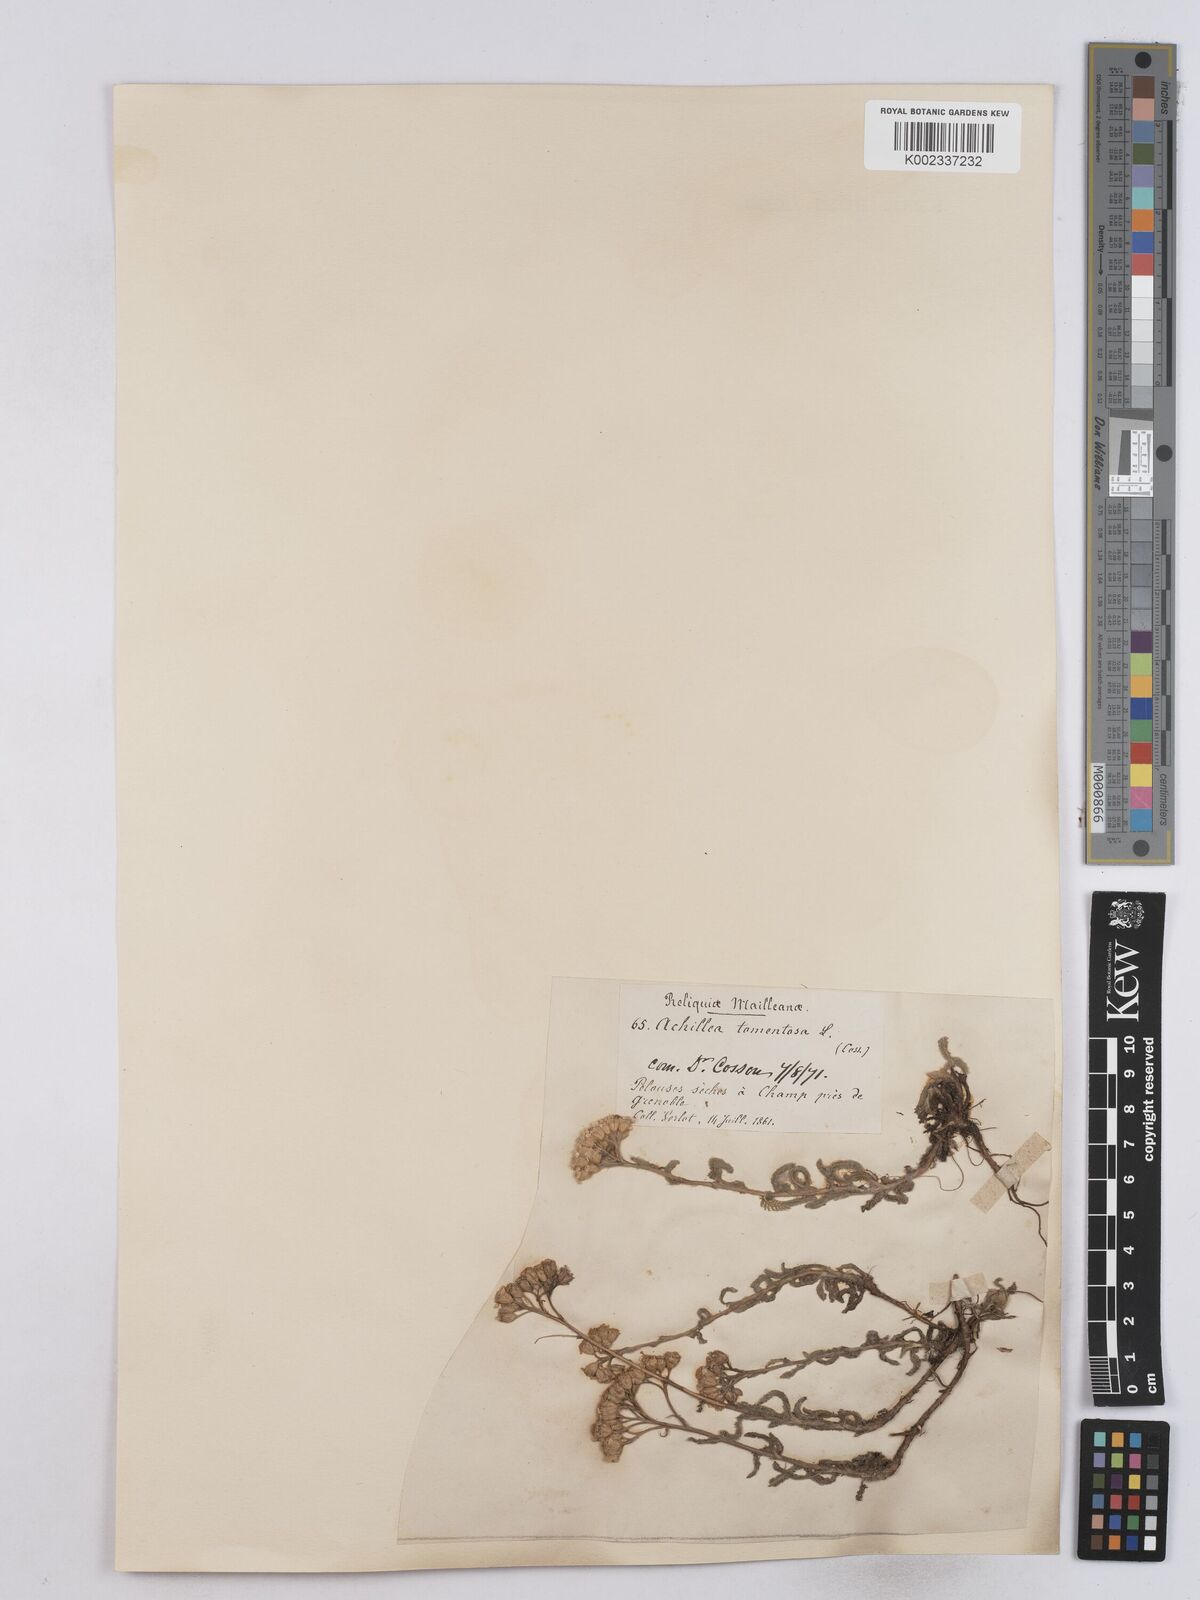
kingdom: Plantae
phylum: Tracheophyta
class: Magnoliopsida
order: Asterales
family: Asteraceae
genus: Achillea
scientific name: Achillea tomentosa
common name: Yellow milfoil
